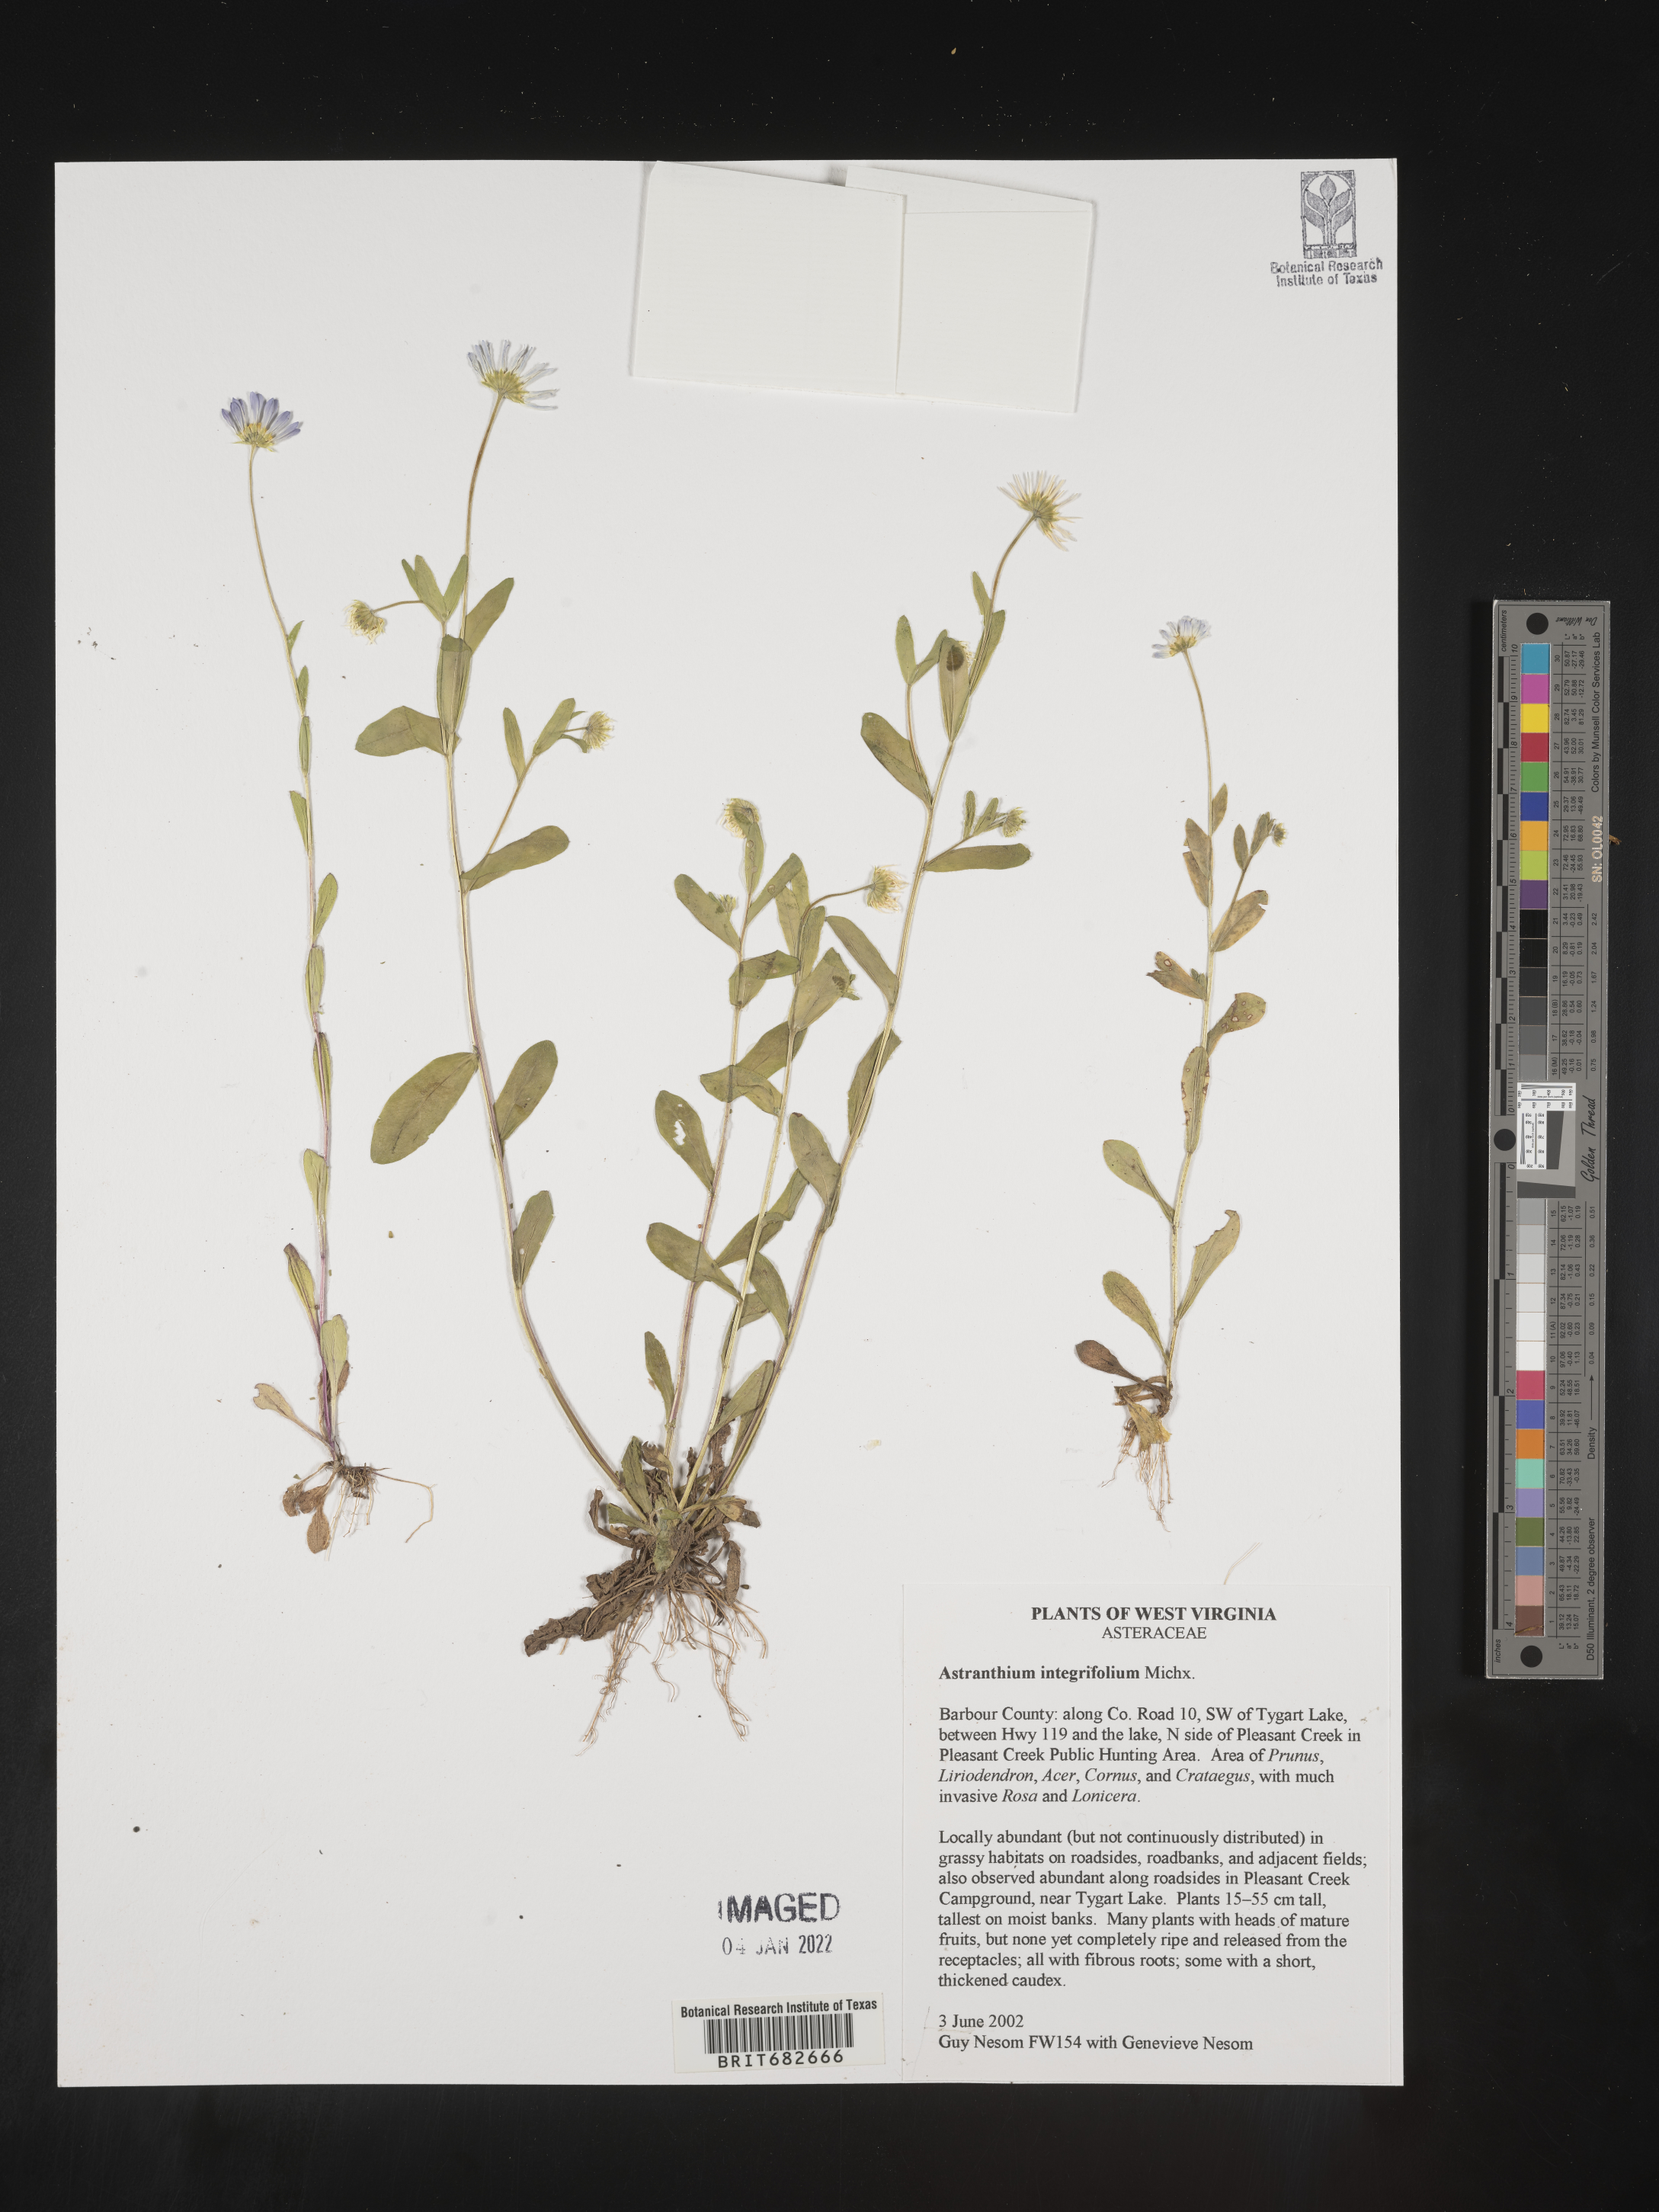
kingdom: Plantae
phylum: Tracheophyta
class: Magnoliopsida
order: Asterales
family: Asteraceae
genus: Astranthium
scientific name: Astranthium
